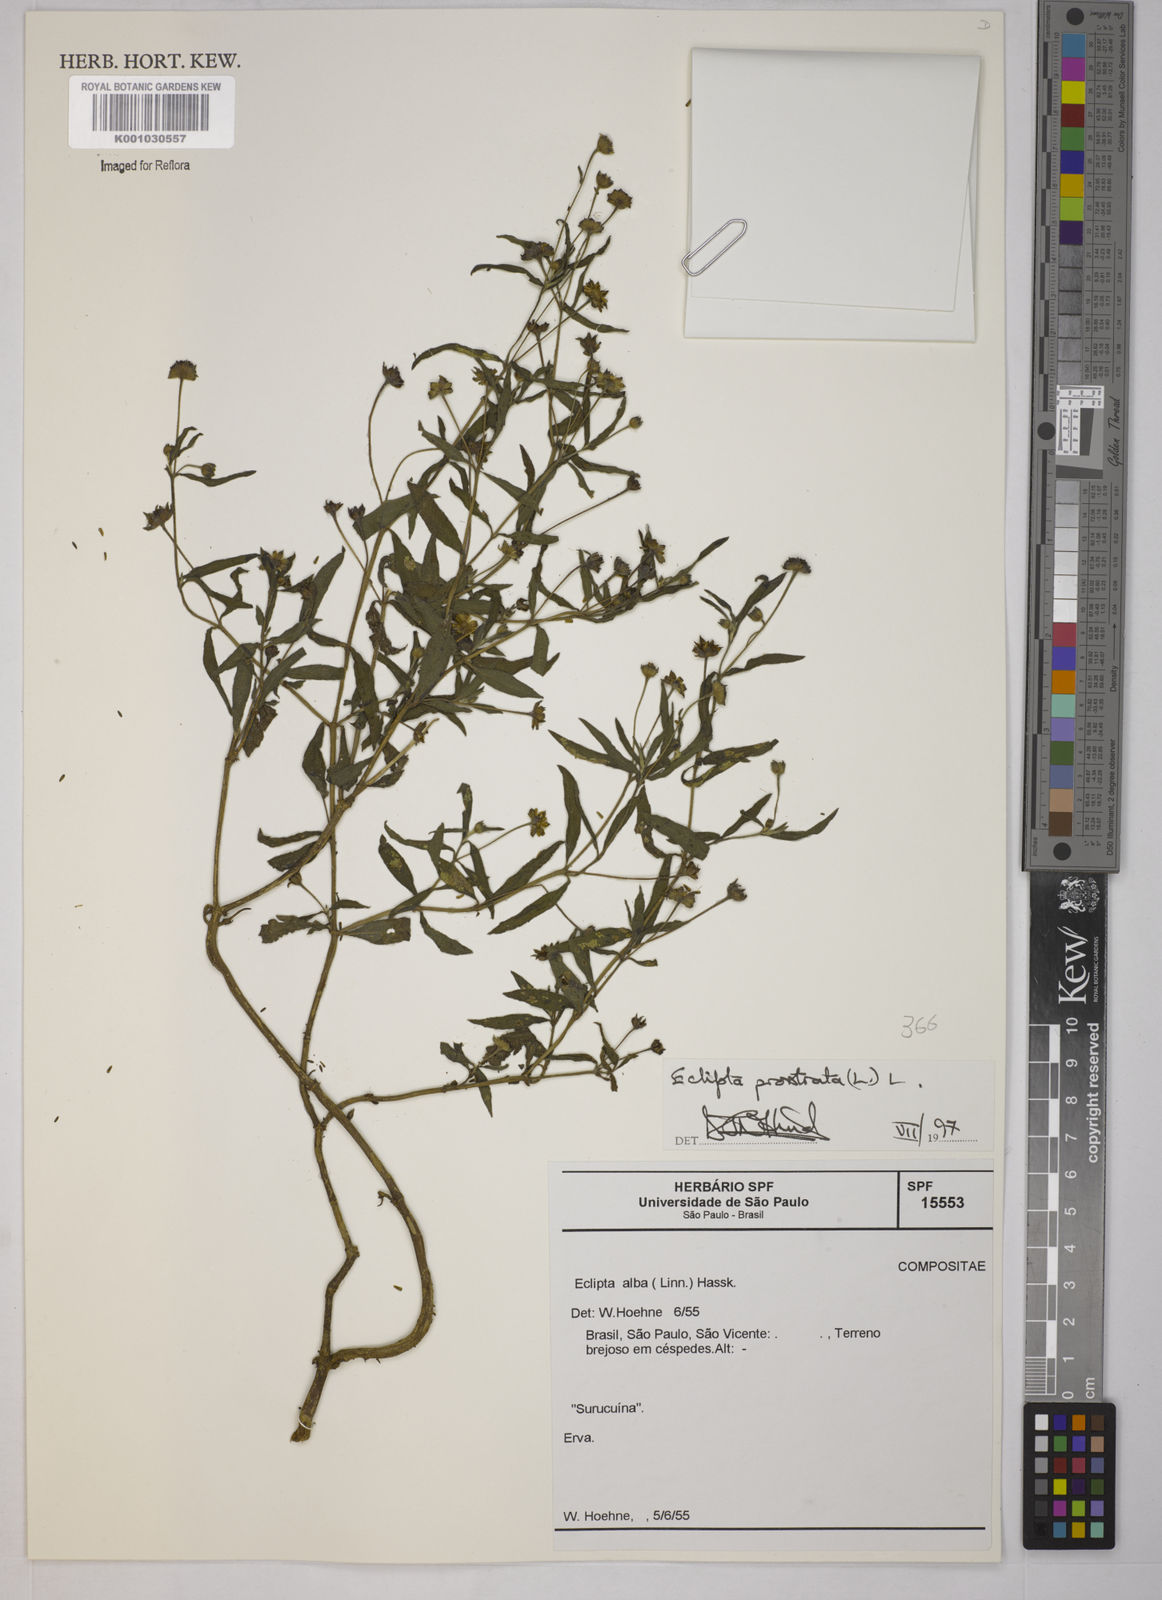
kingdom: Plantae
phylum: Tracheophyta
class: Magnoliopsida
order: Asterales
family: Asteraceae
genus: Eclipta
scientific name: Eclipta prostrata
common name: False daisy
